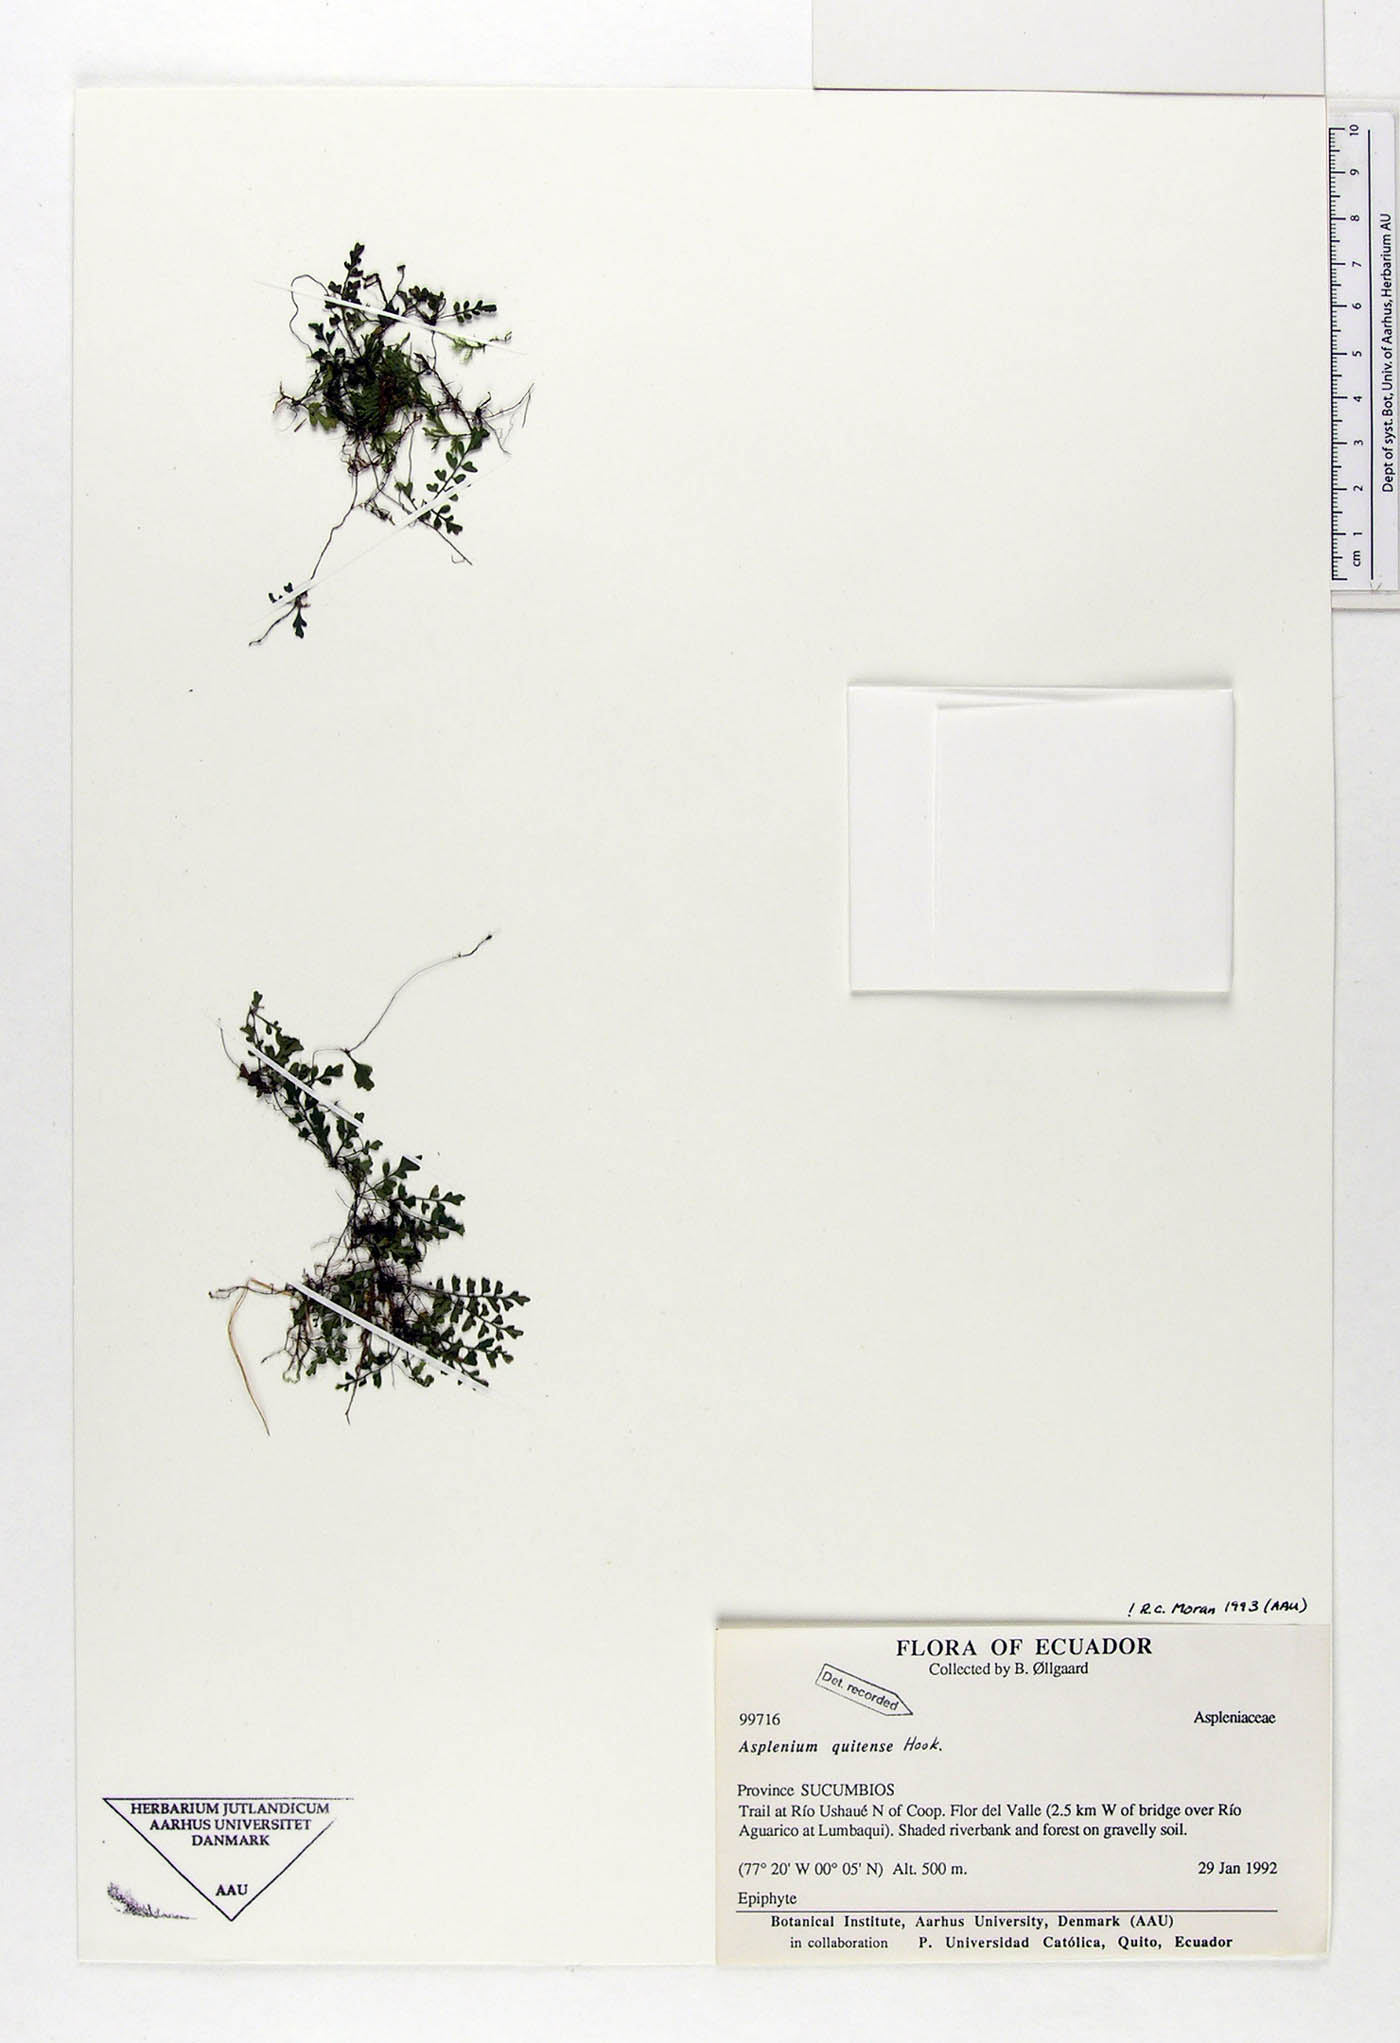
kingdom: Plantae
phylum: Tracheophyta
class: Polypodiopsida
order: Polypodiales
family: Aspleniaceae
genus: Asplenium
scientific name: Asplenium quitense
